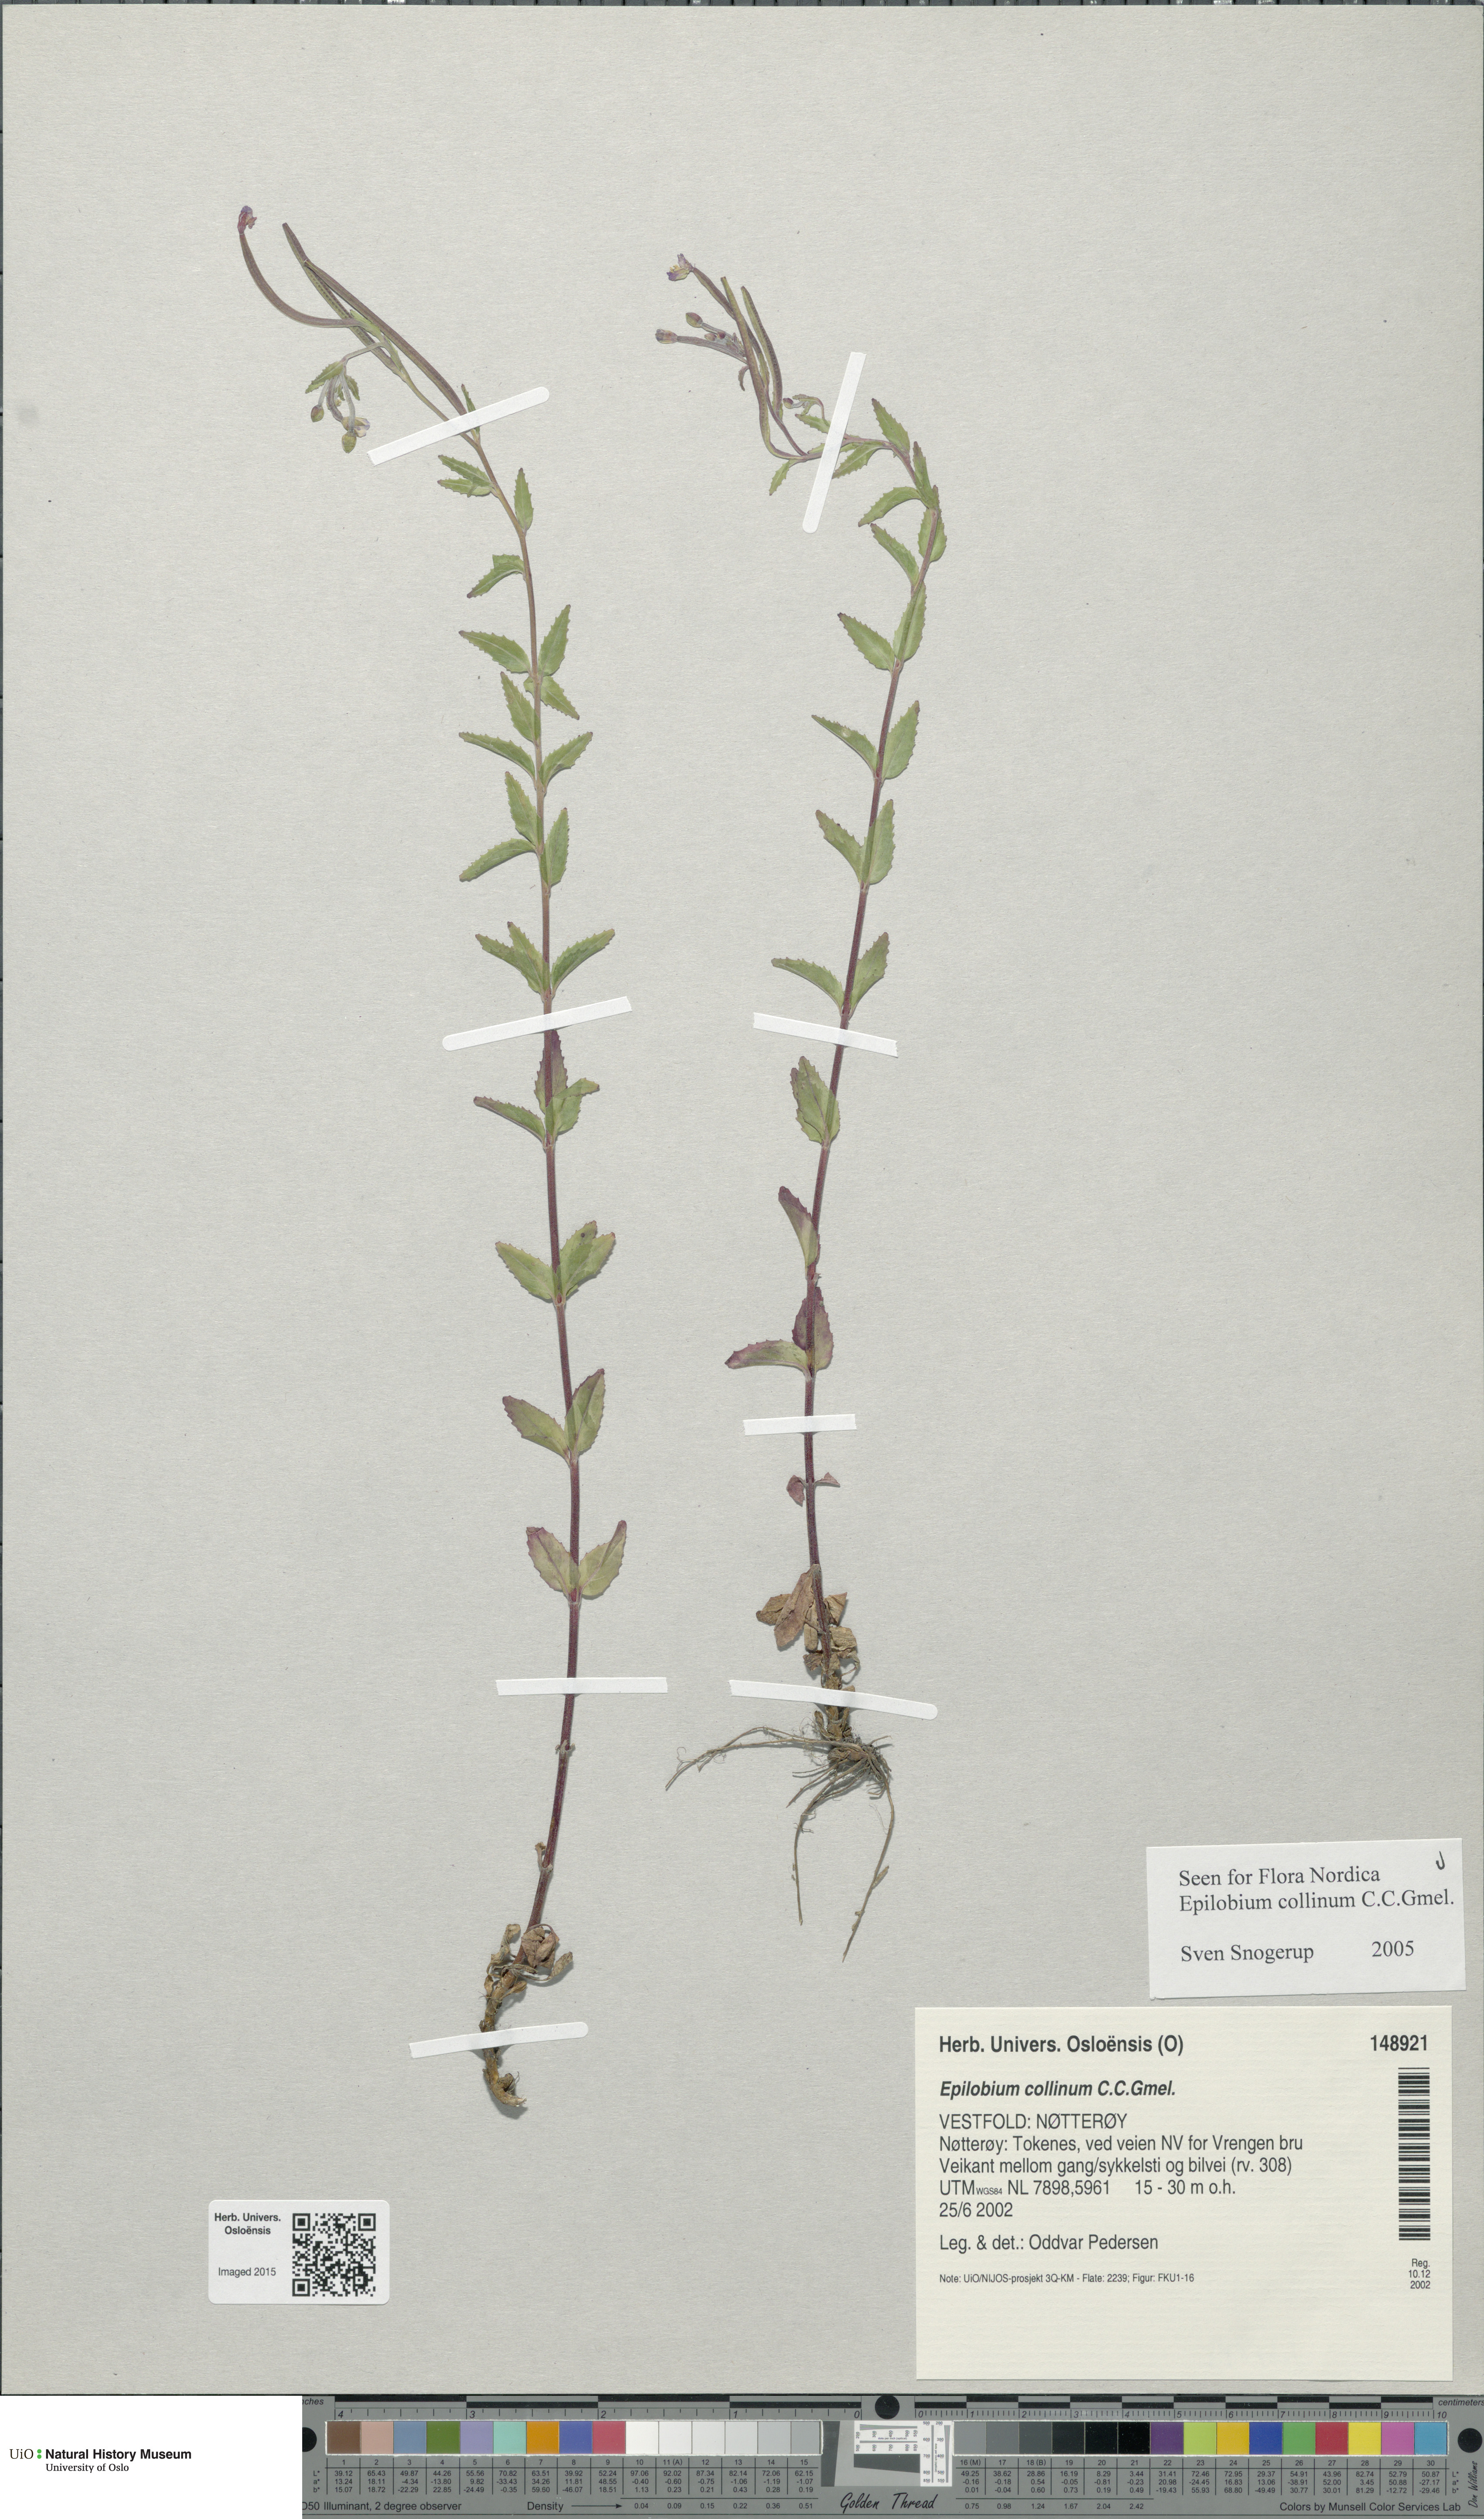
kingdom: Plantae
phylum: Tracheophyta
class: Magnoliopsida
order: Myrtales
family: Onagraceae
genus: Epilobium
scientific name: Epilobium collinum
